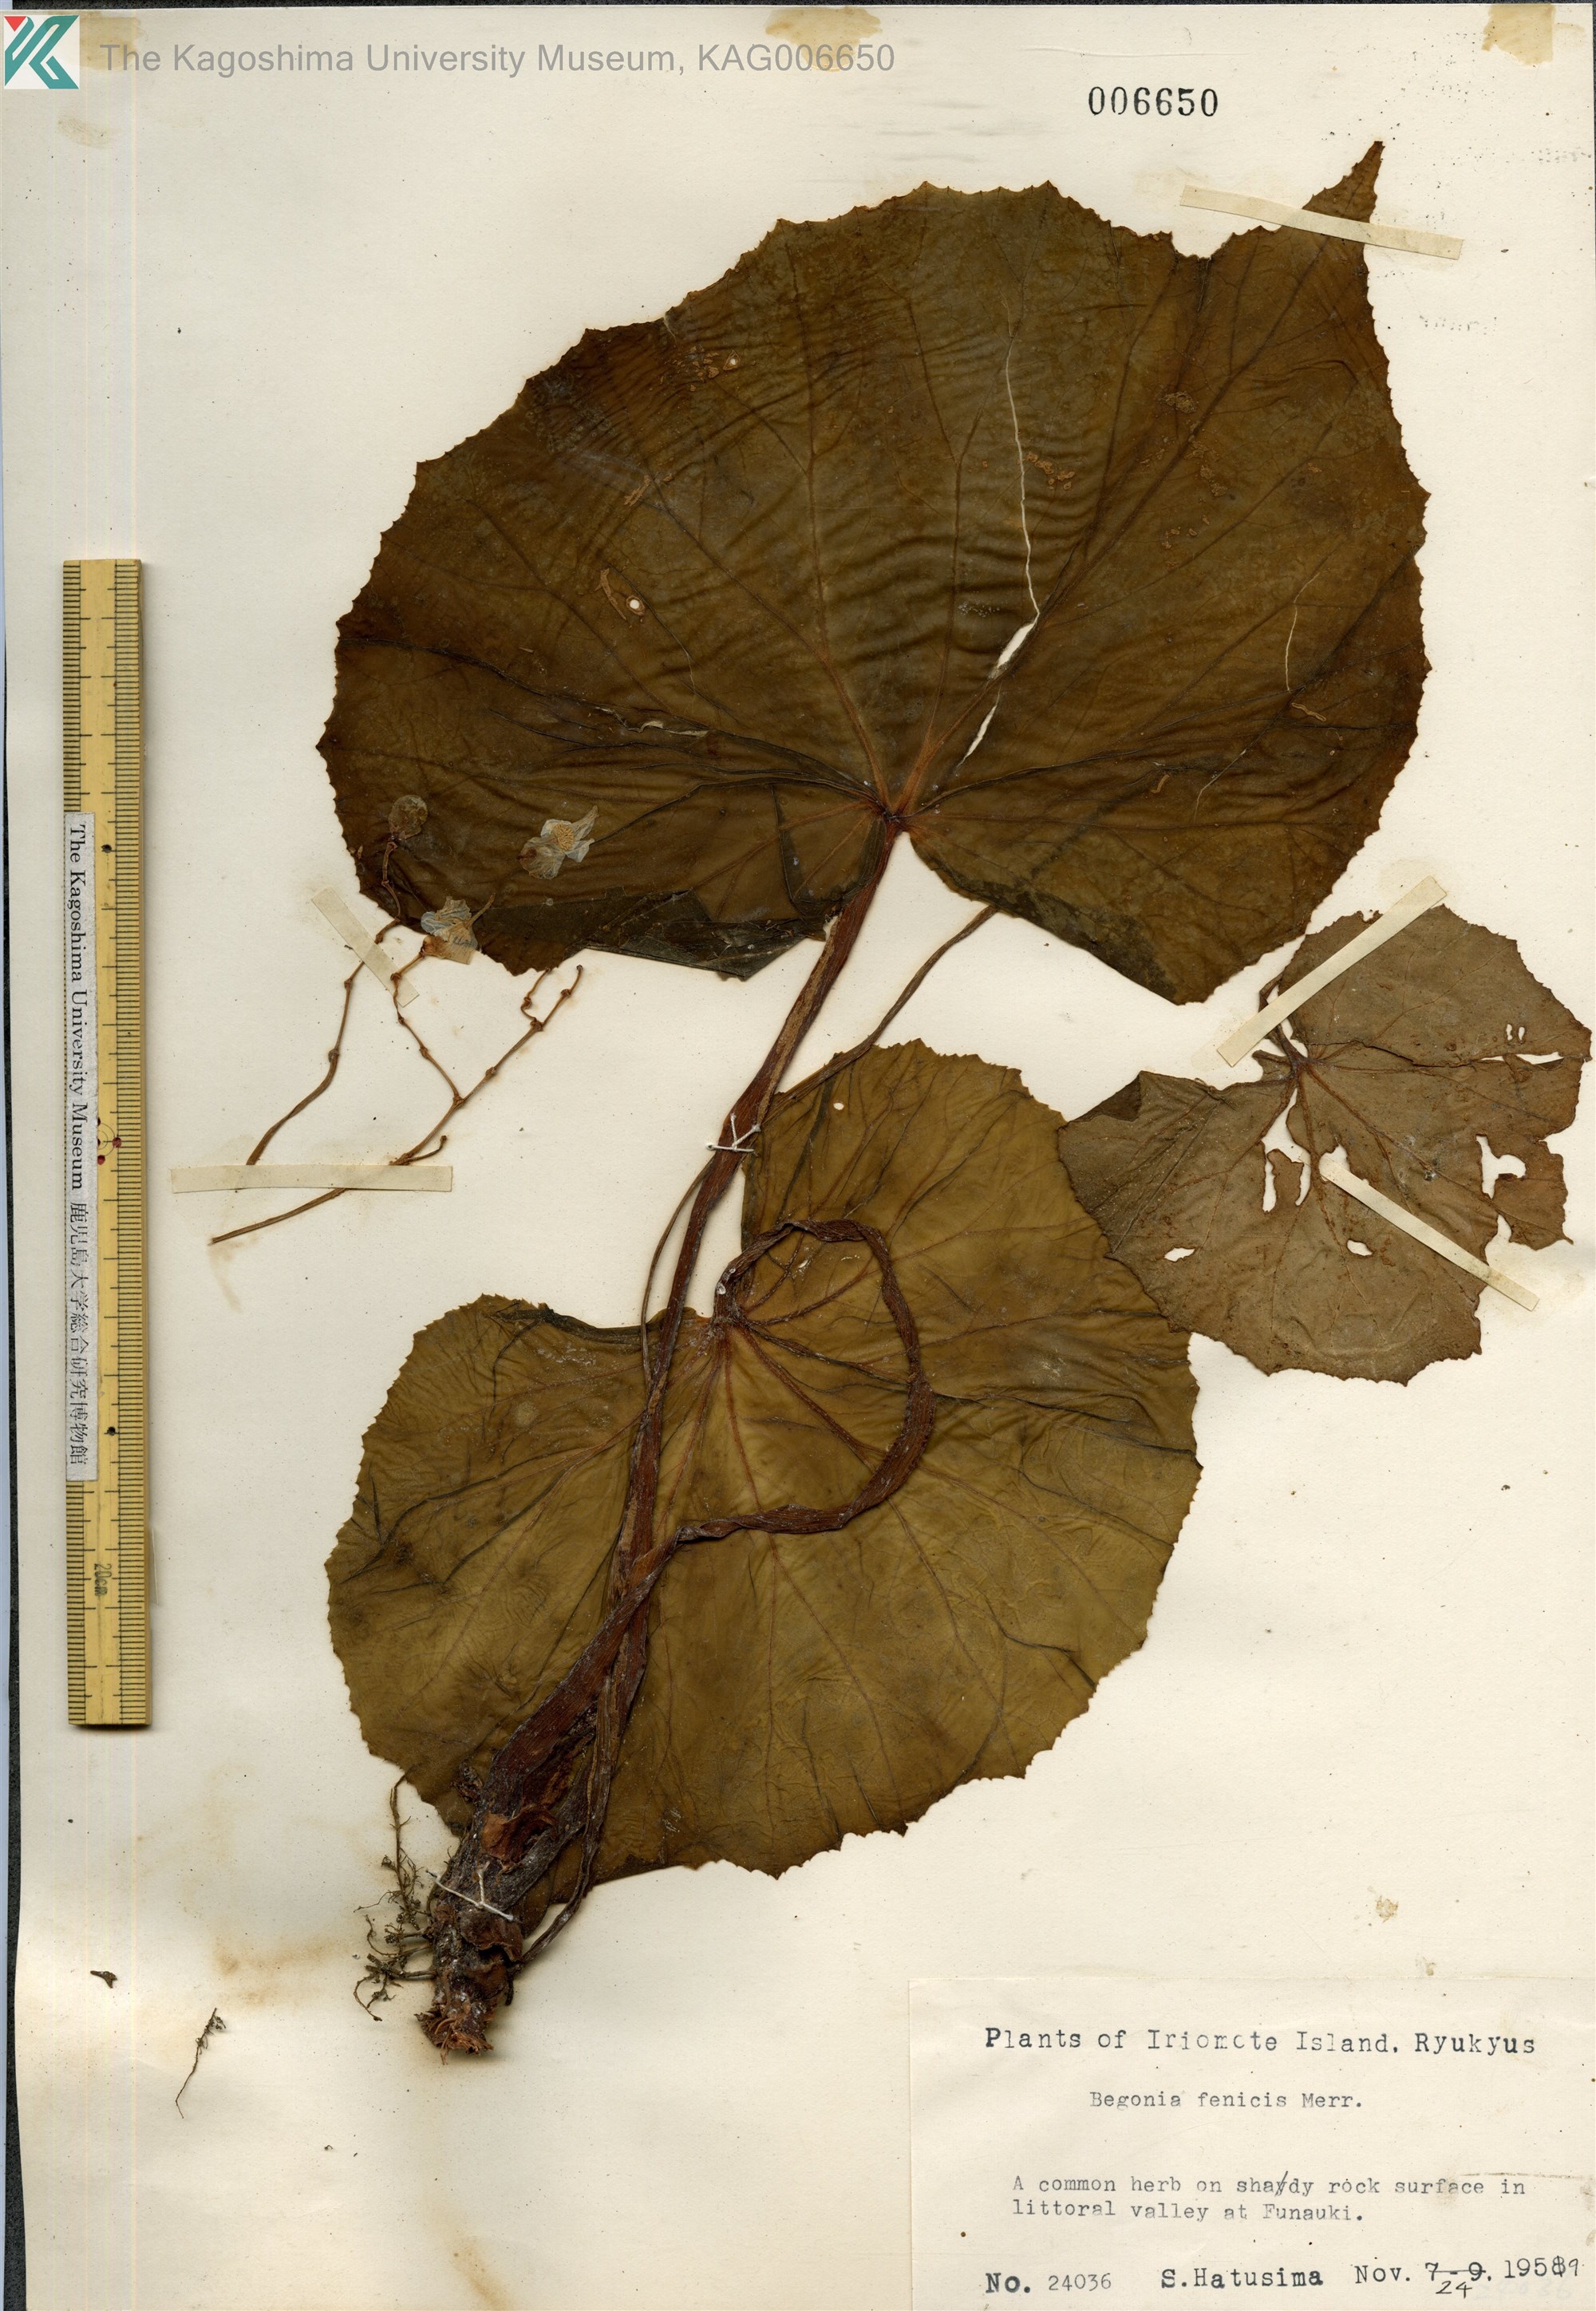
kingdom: Plantae
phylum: Tracheophyta
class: Magnoliopsida
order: Cucurbitales
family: Begoniaceae
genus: Begonia
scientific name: Begonia fenicis
